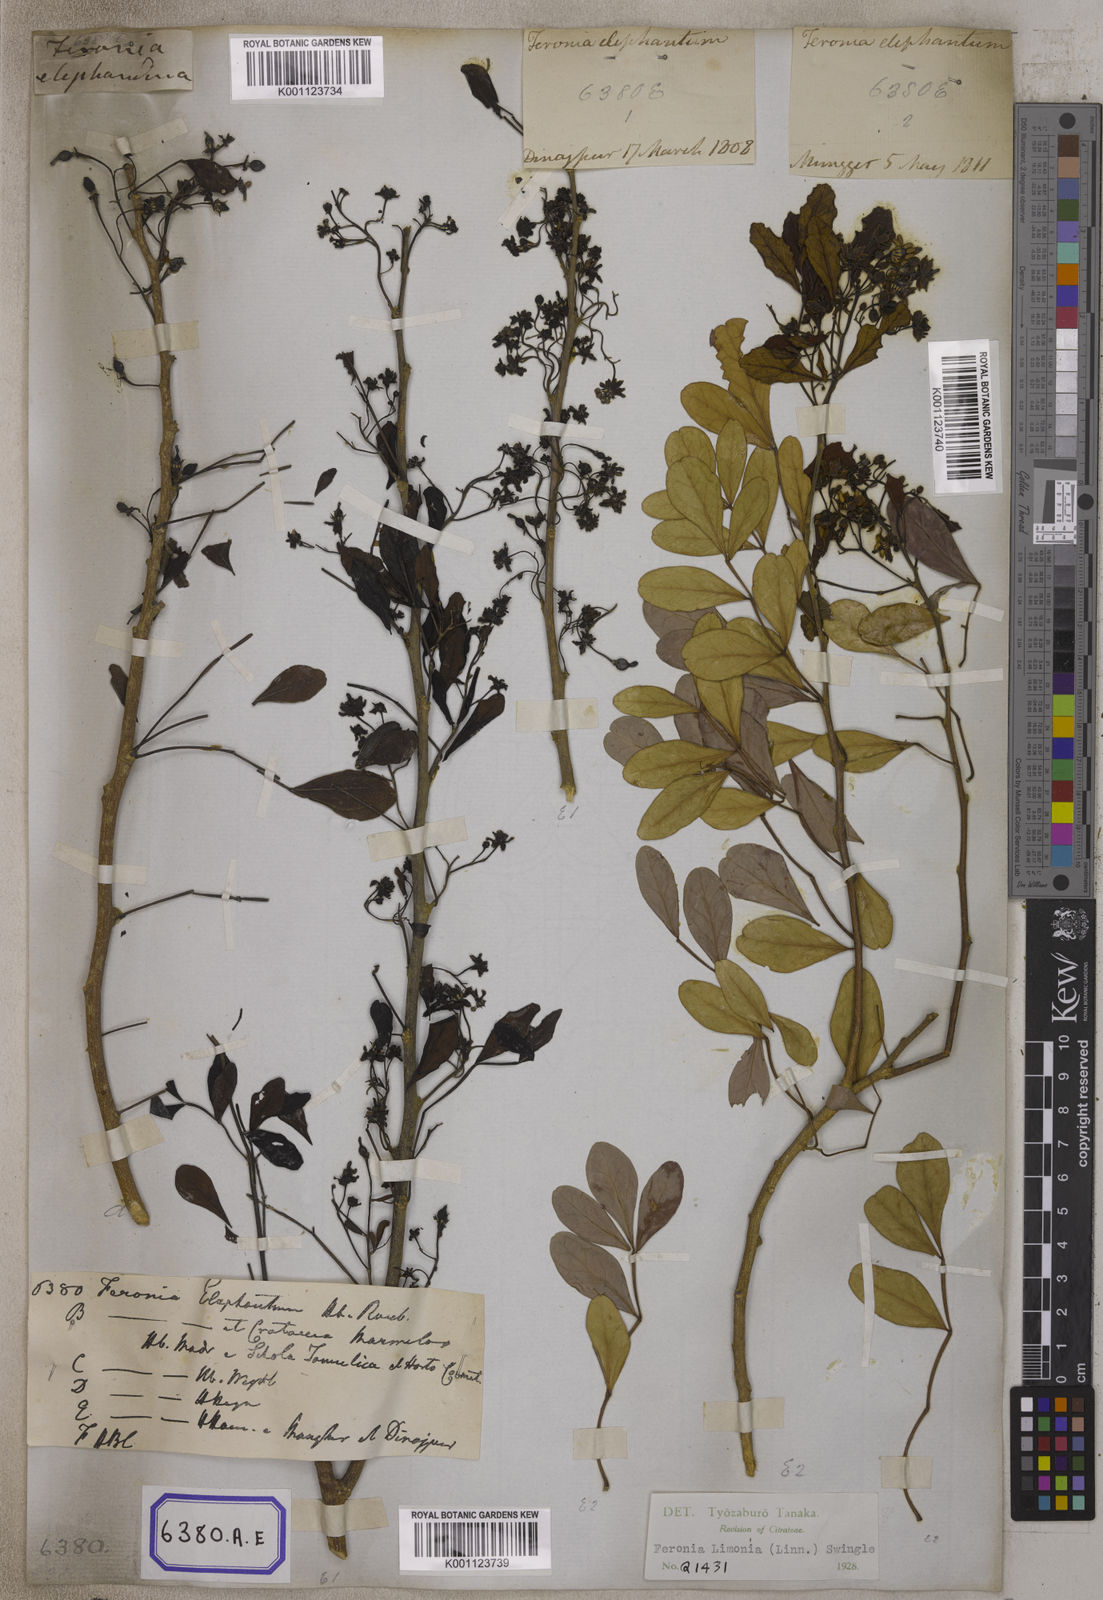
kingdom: Plantae
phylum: Tracheophyta
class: Magnoliopsida
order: Sapindales
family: Rutaceae
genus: Limonia
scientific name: Limonia acidissima
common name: Elephant apple
